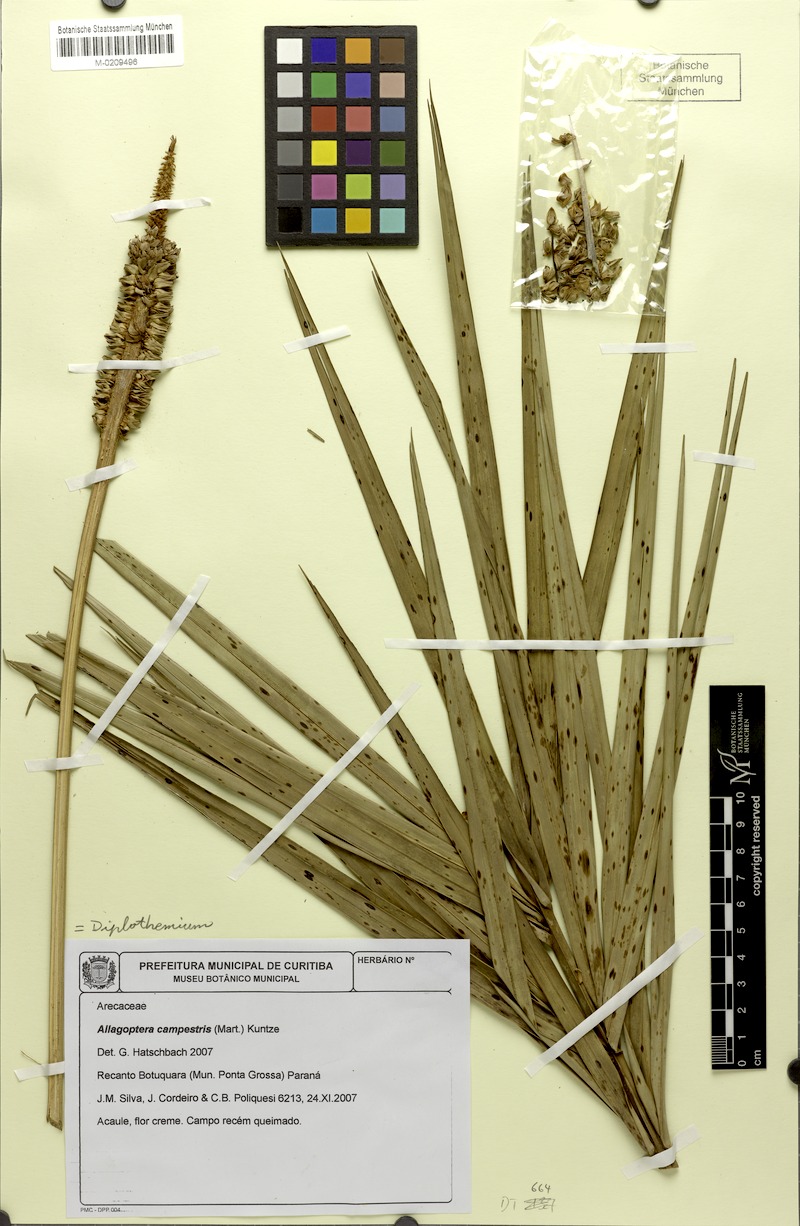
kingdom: Plantae
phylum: Tracheophyta
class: Liliopsida
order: Arecales
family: Arecaceae
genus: Allagoptera
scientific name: Allagoptera campestris
